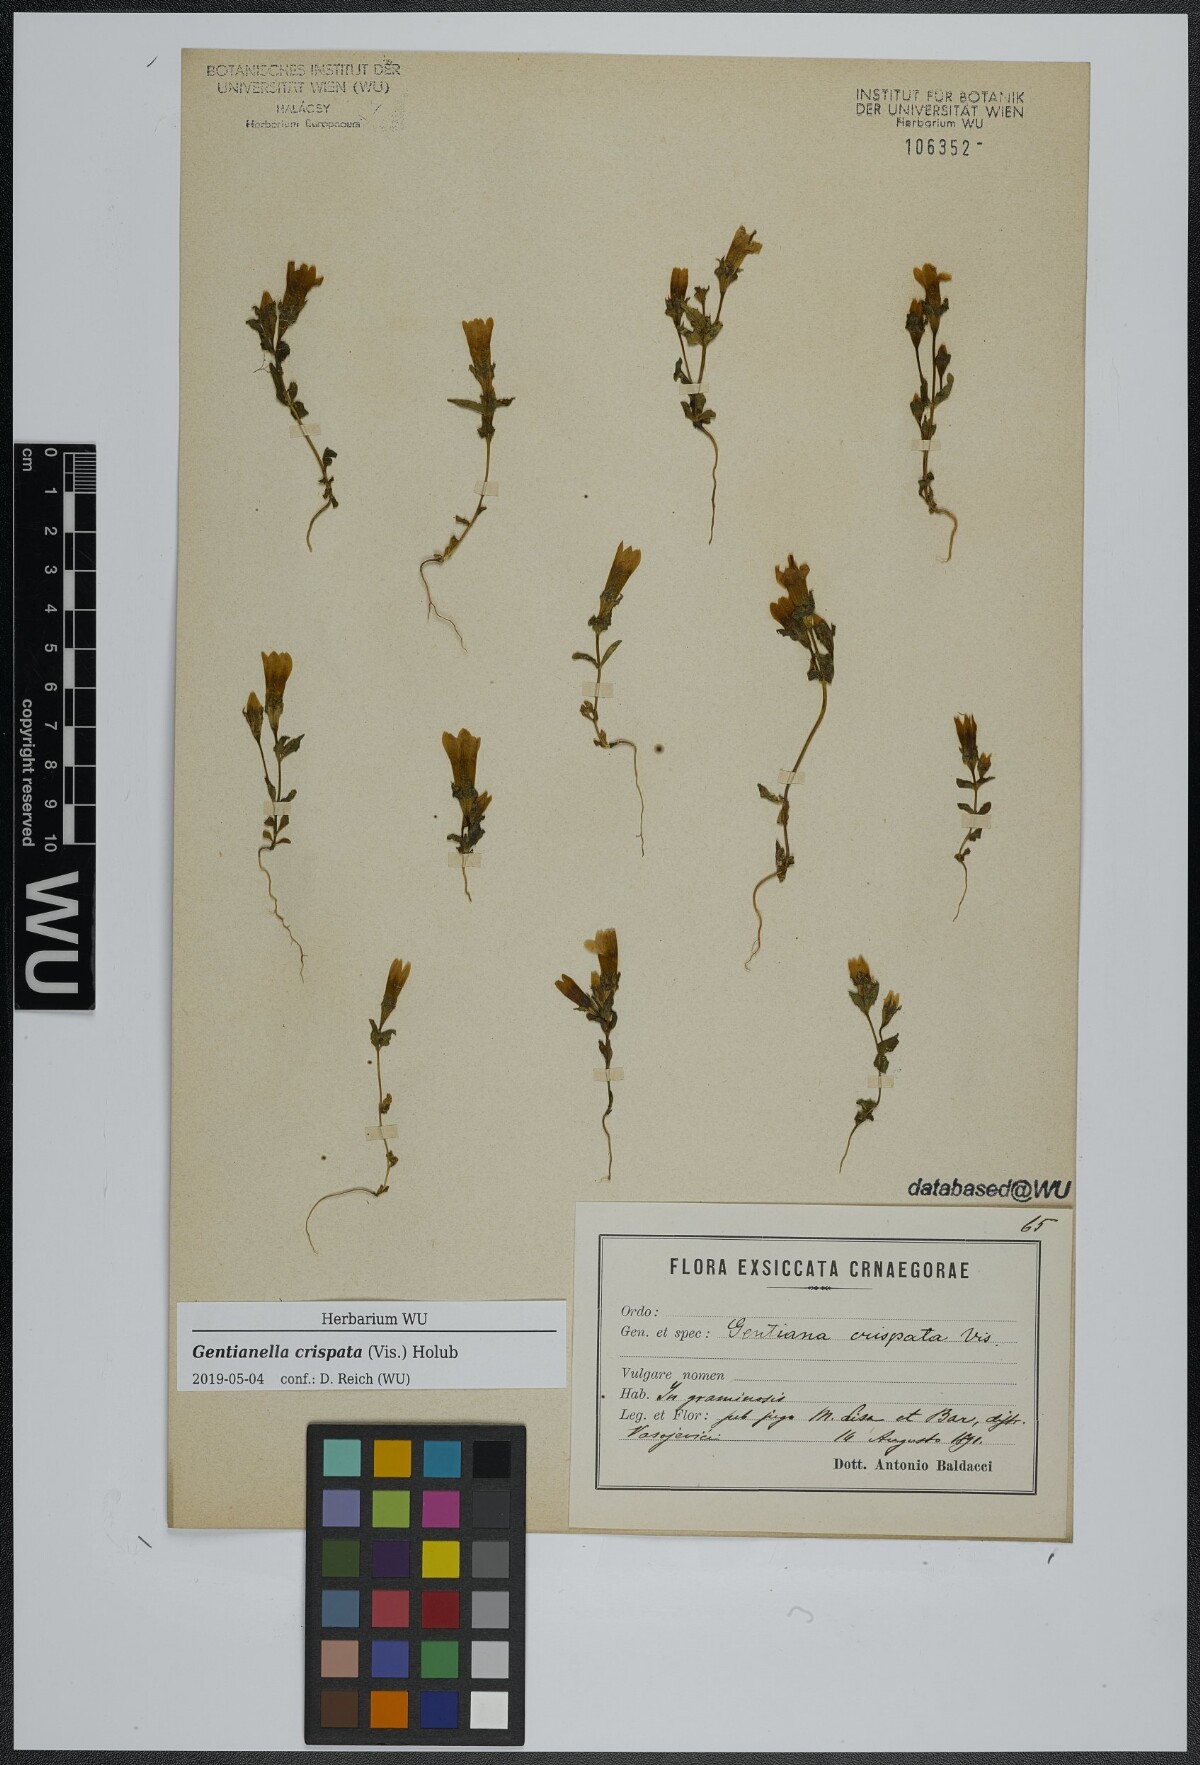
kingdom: Plantae
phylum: Tracheophyta
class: Magnoliopsida
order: Gentianales
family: Gentianaceae
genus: Gentianella
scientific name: Gentianella crispata
